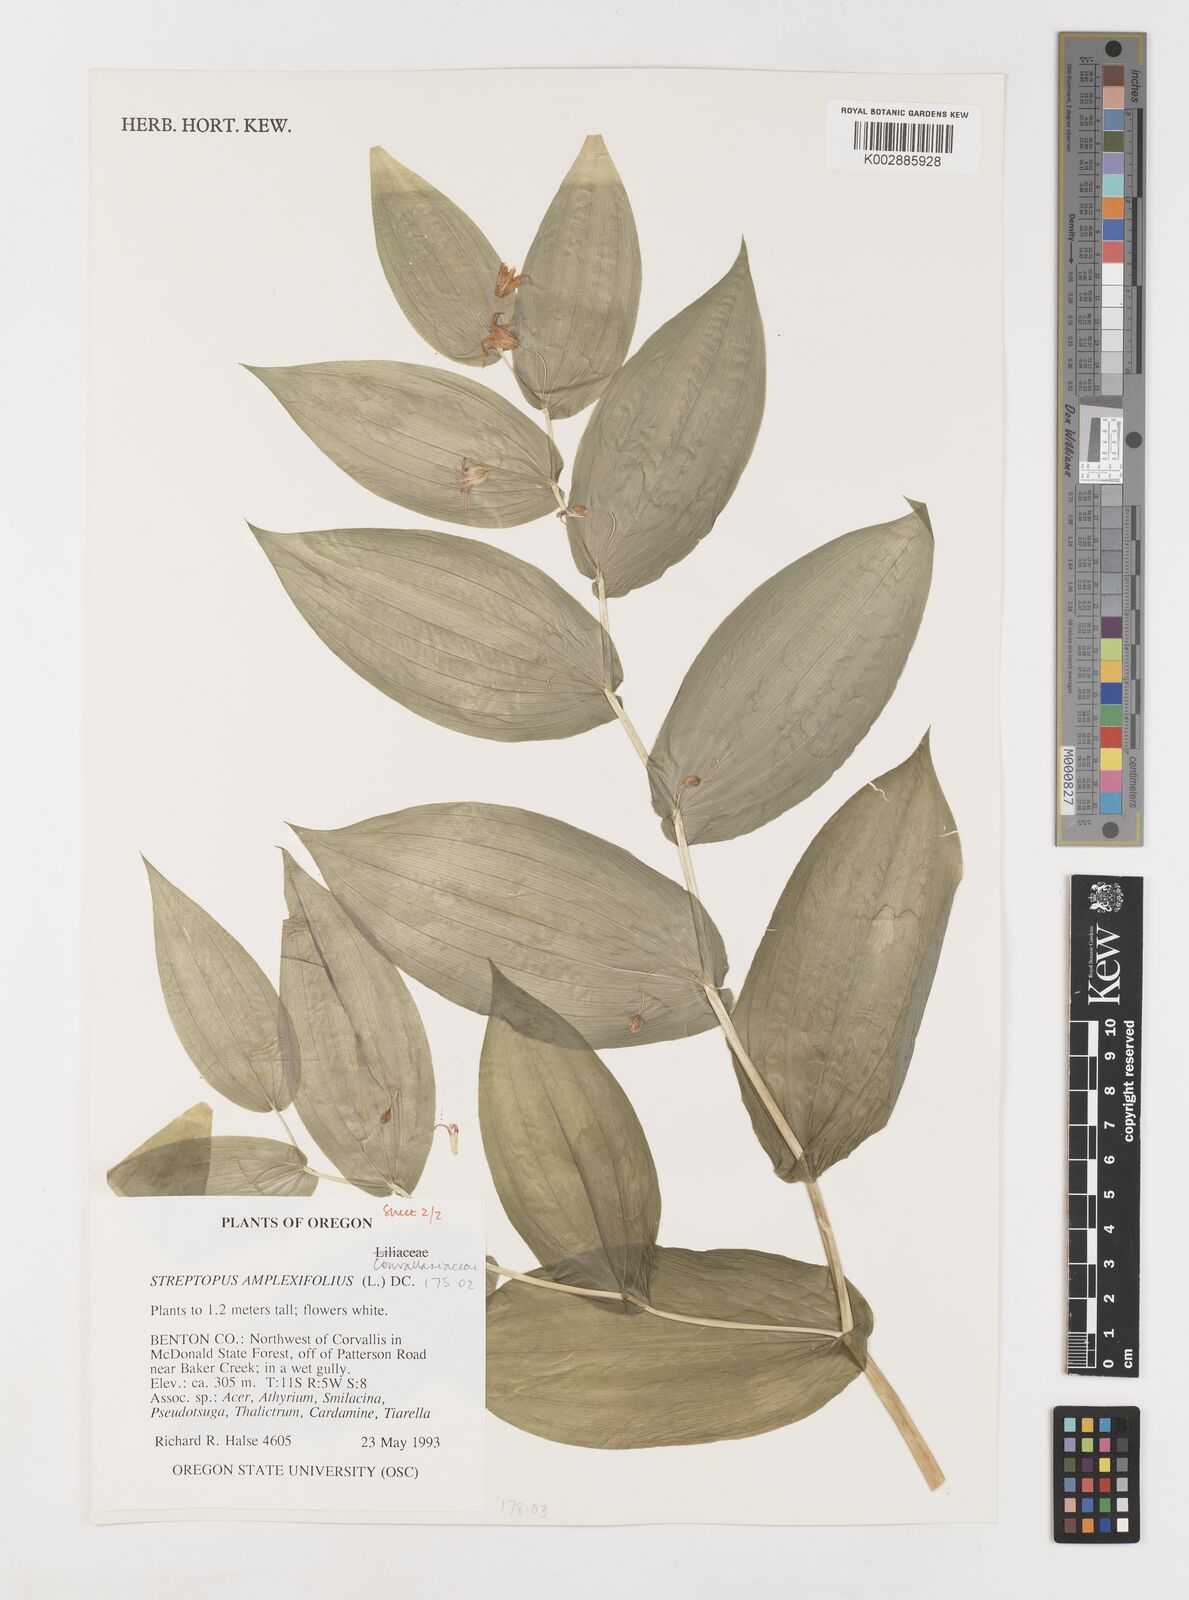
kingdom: Plantae
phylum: Tracheophyta
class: Liliopsida
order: Liliales
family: Liliaceae
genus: Streptopus
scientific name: Streptopus
